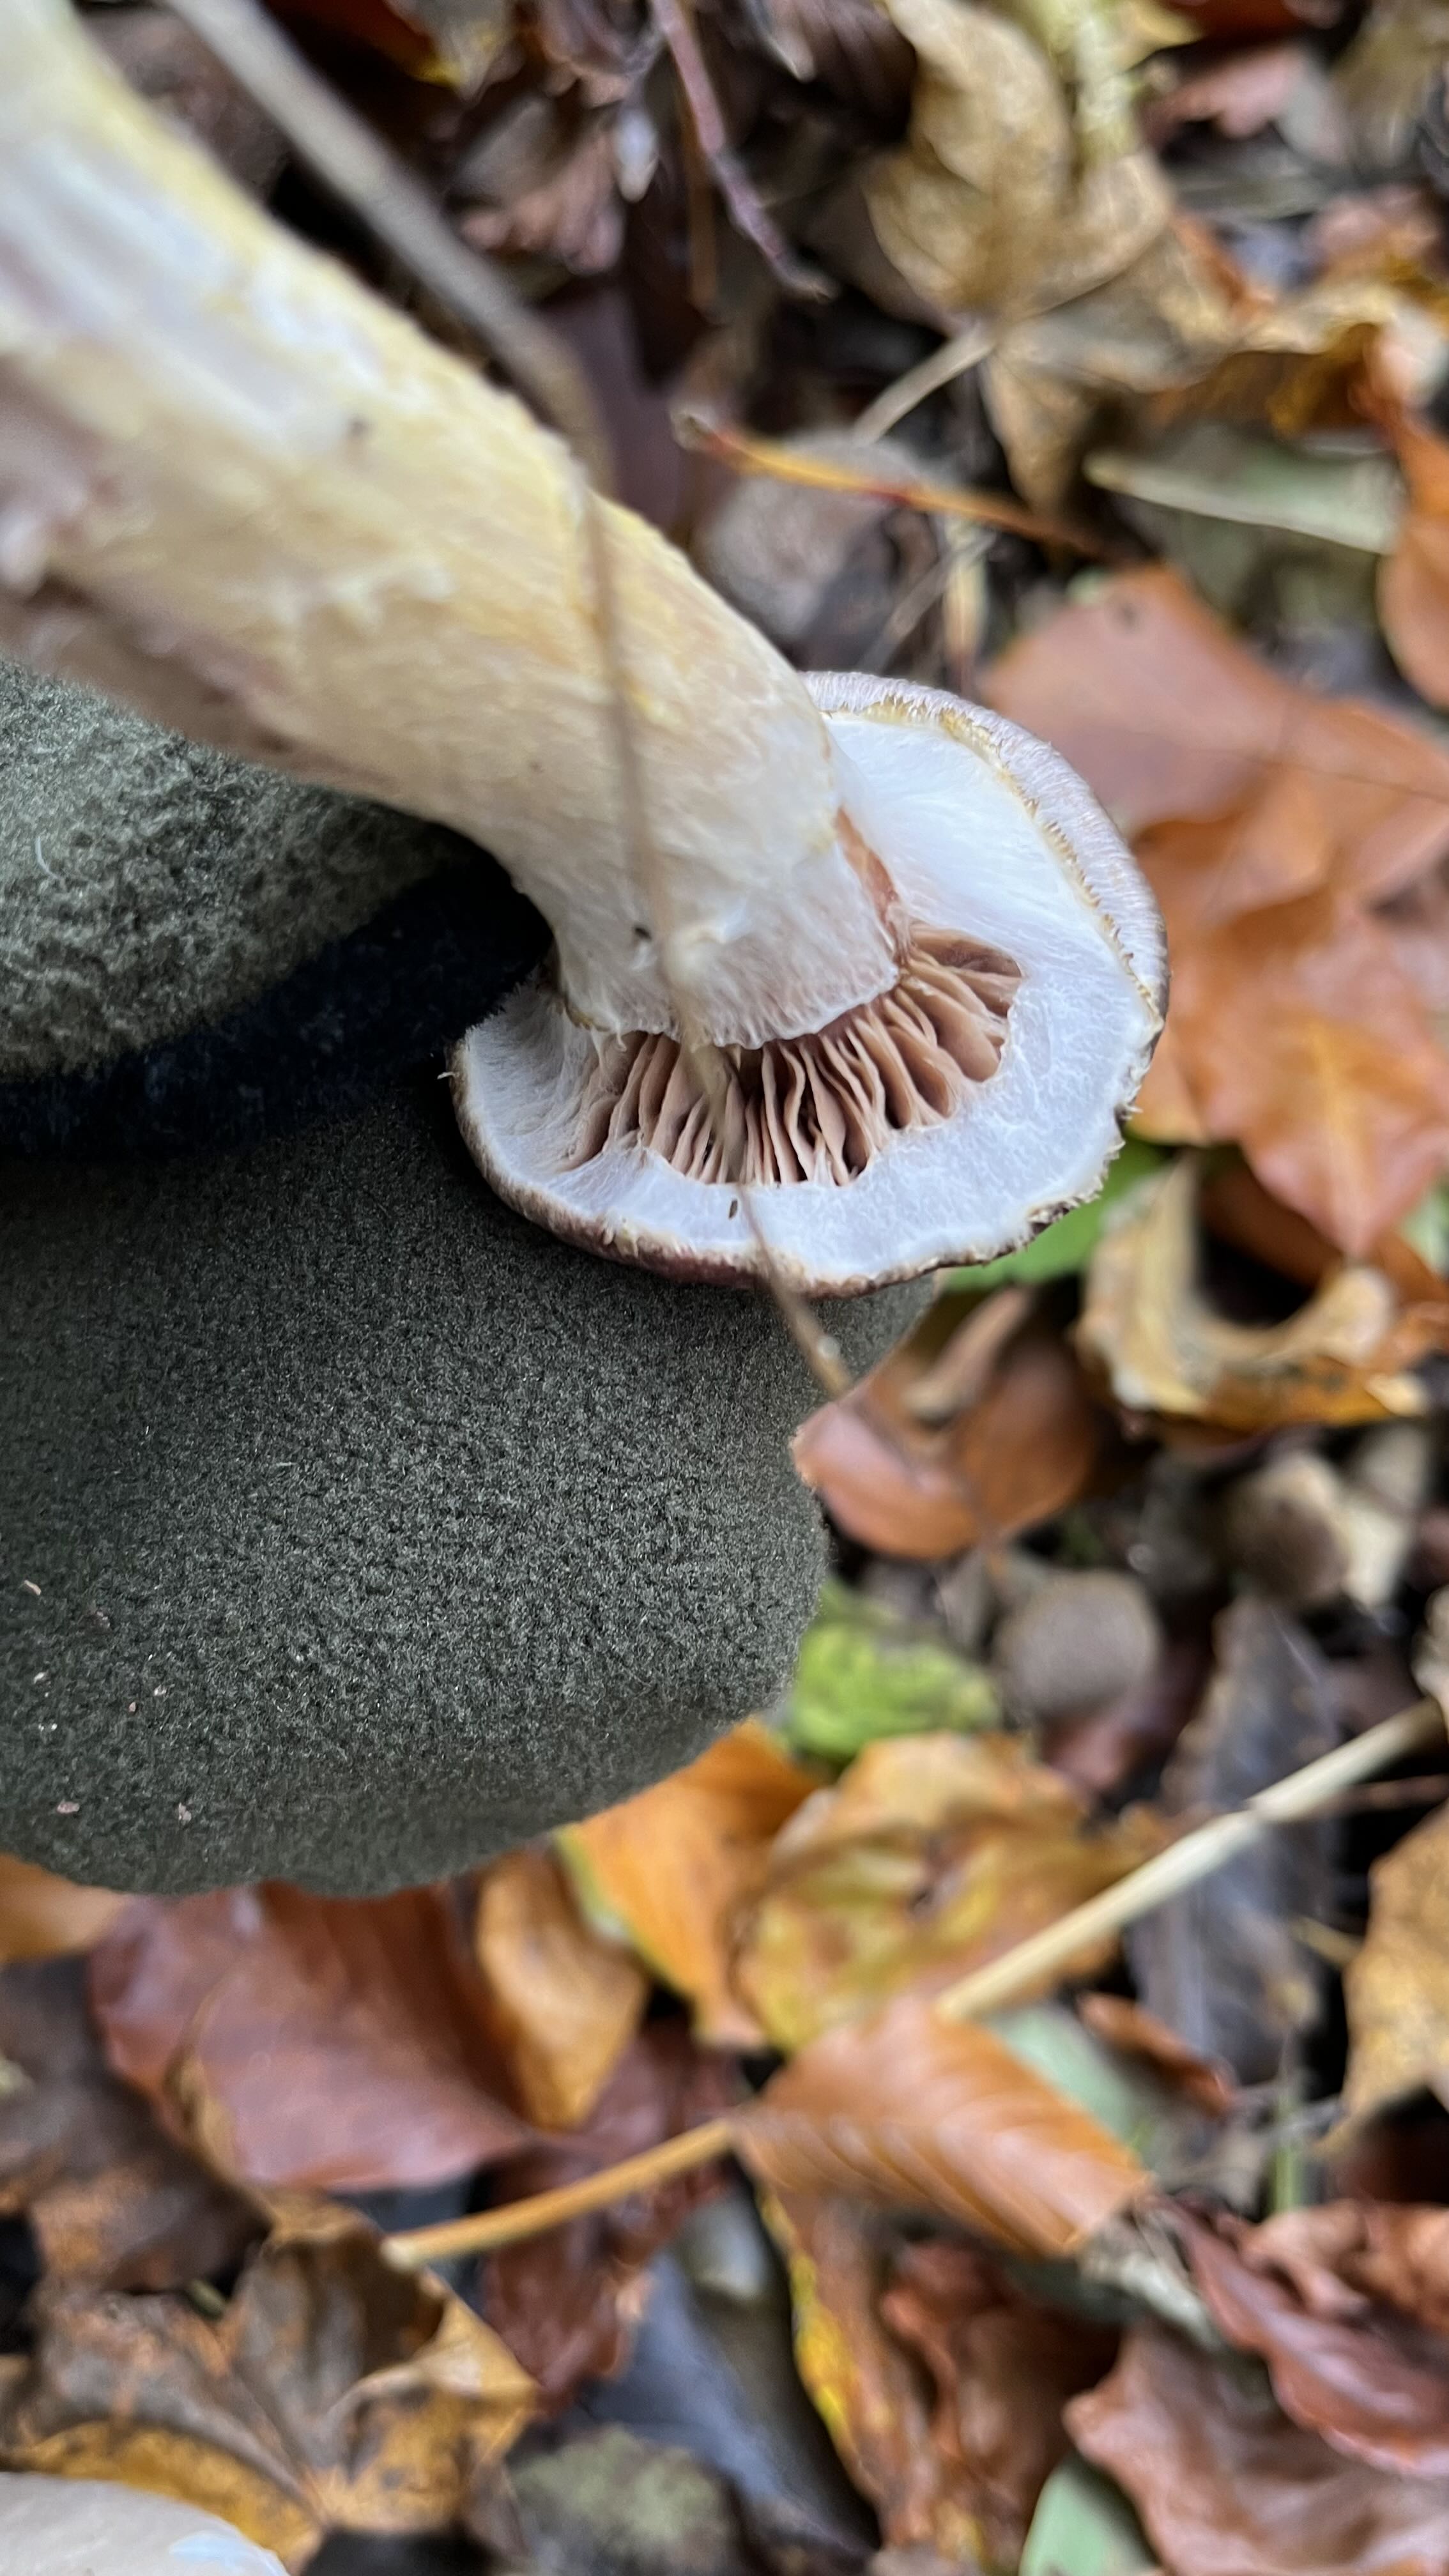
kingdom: Fungi
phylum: Basidiomycota
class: Agaricomycetes
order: Agaricales
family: Physalacriaceae
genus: Armillaria
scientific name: Armillaria lutea
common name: køllestokket honningsvamp
